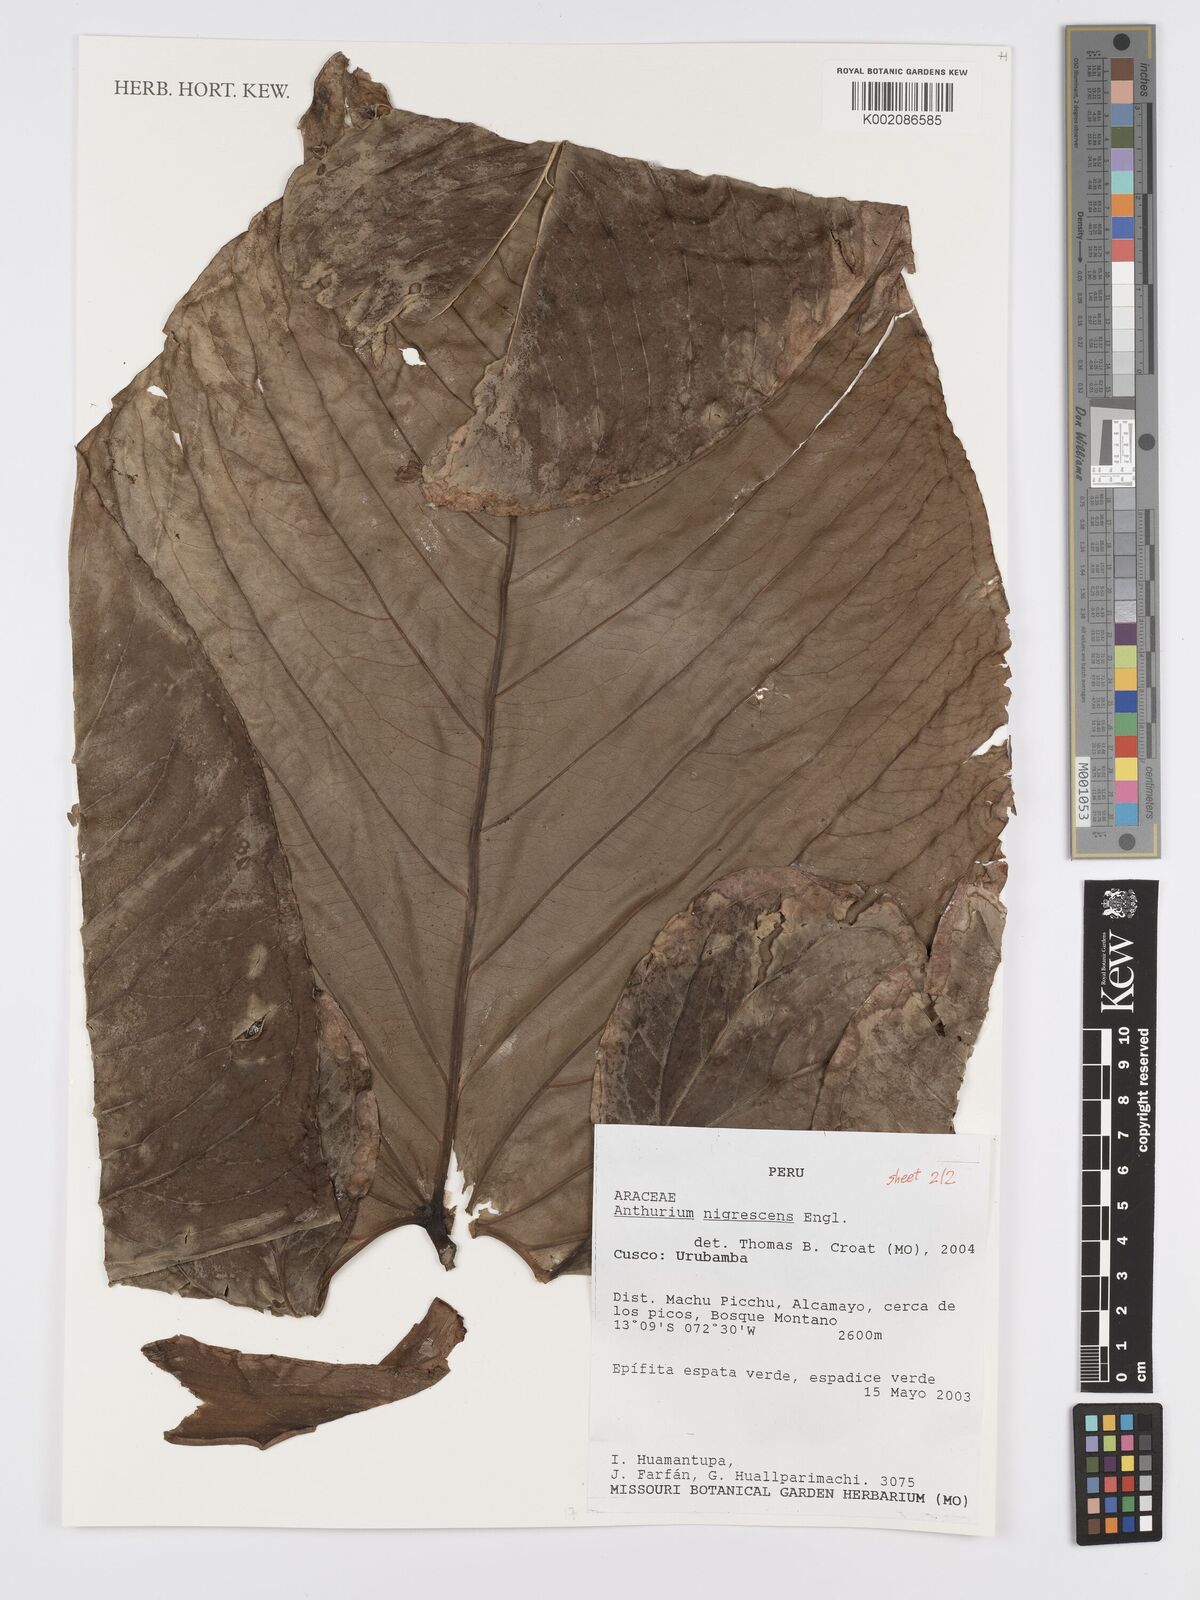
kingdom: Plantae
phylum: Tracheophyta
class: Liliopsida
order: Alismatales
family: Araceae
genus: Anthurium
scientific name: Anthurium nigrescens
